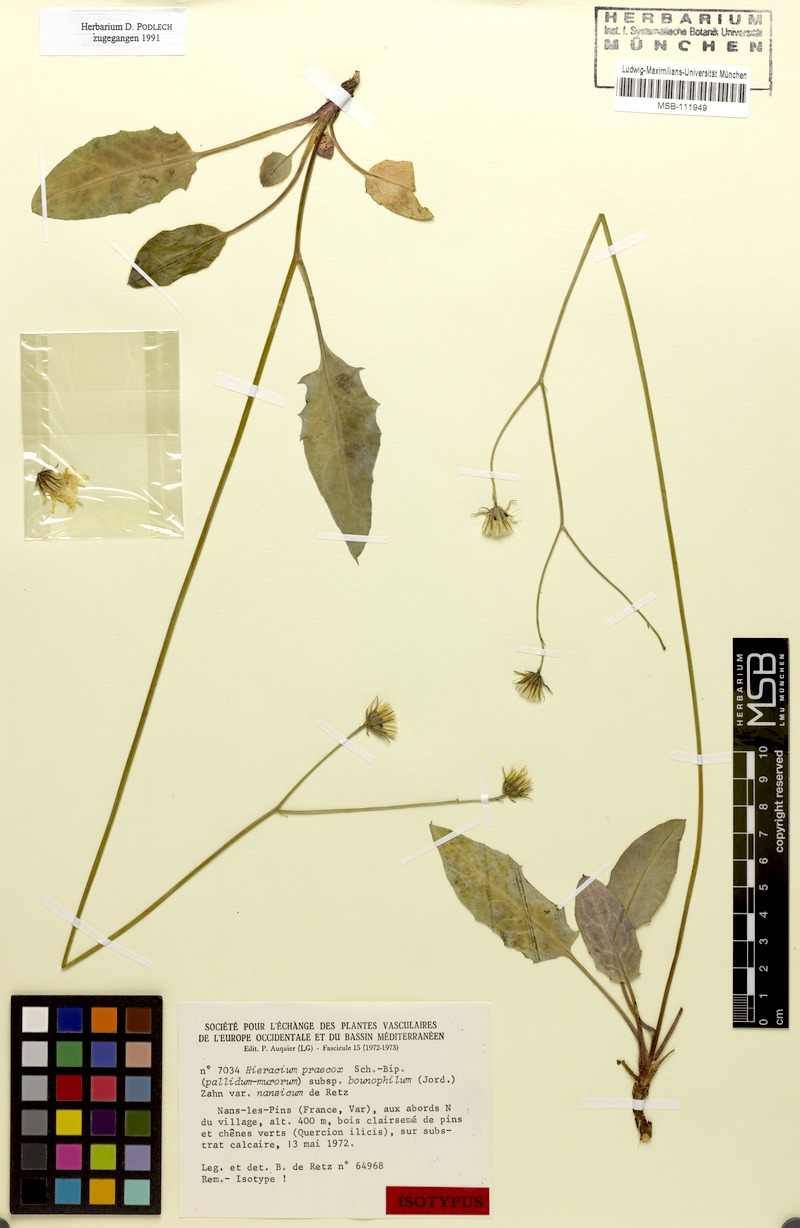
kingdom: Plantae
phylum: Tracheophyta
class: Magnoliopsida
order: Asterales
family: Asteraceae
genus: Hieracium
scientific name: Hieracium glaucinum
